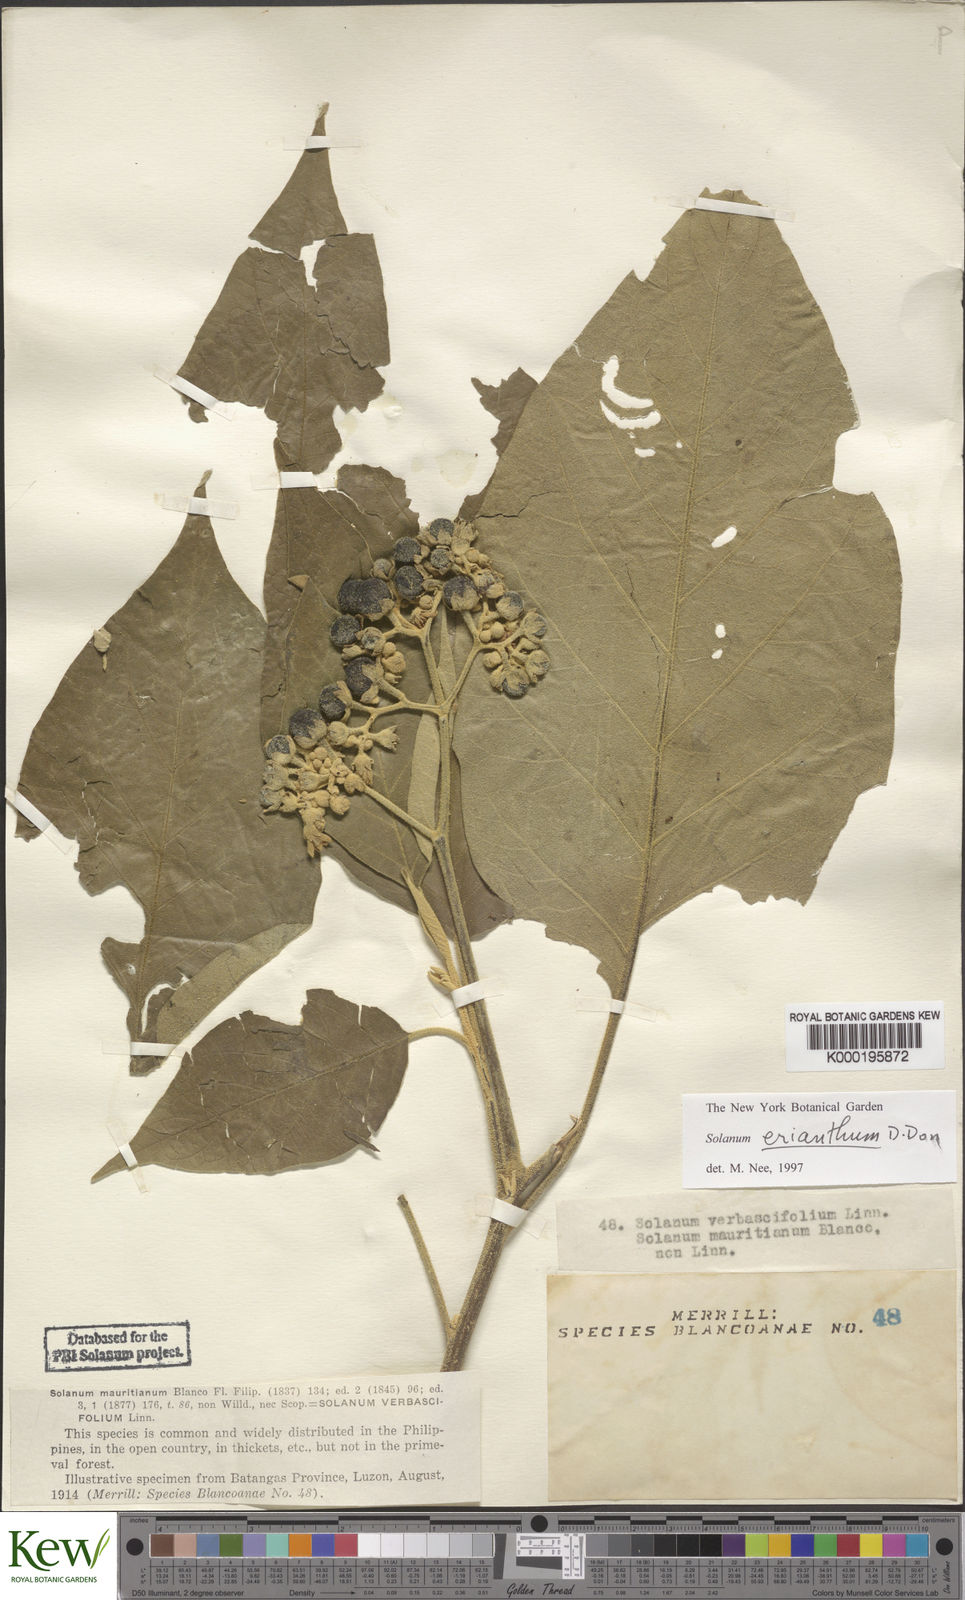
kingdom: Plantae
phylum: Tracheophyta
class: Magnoliopsida
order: Solanales
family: Solanaceae
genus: Solanum
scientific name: Solanum erianthum
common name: Tobacco-tree
